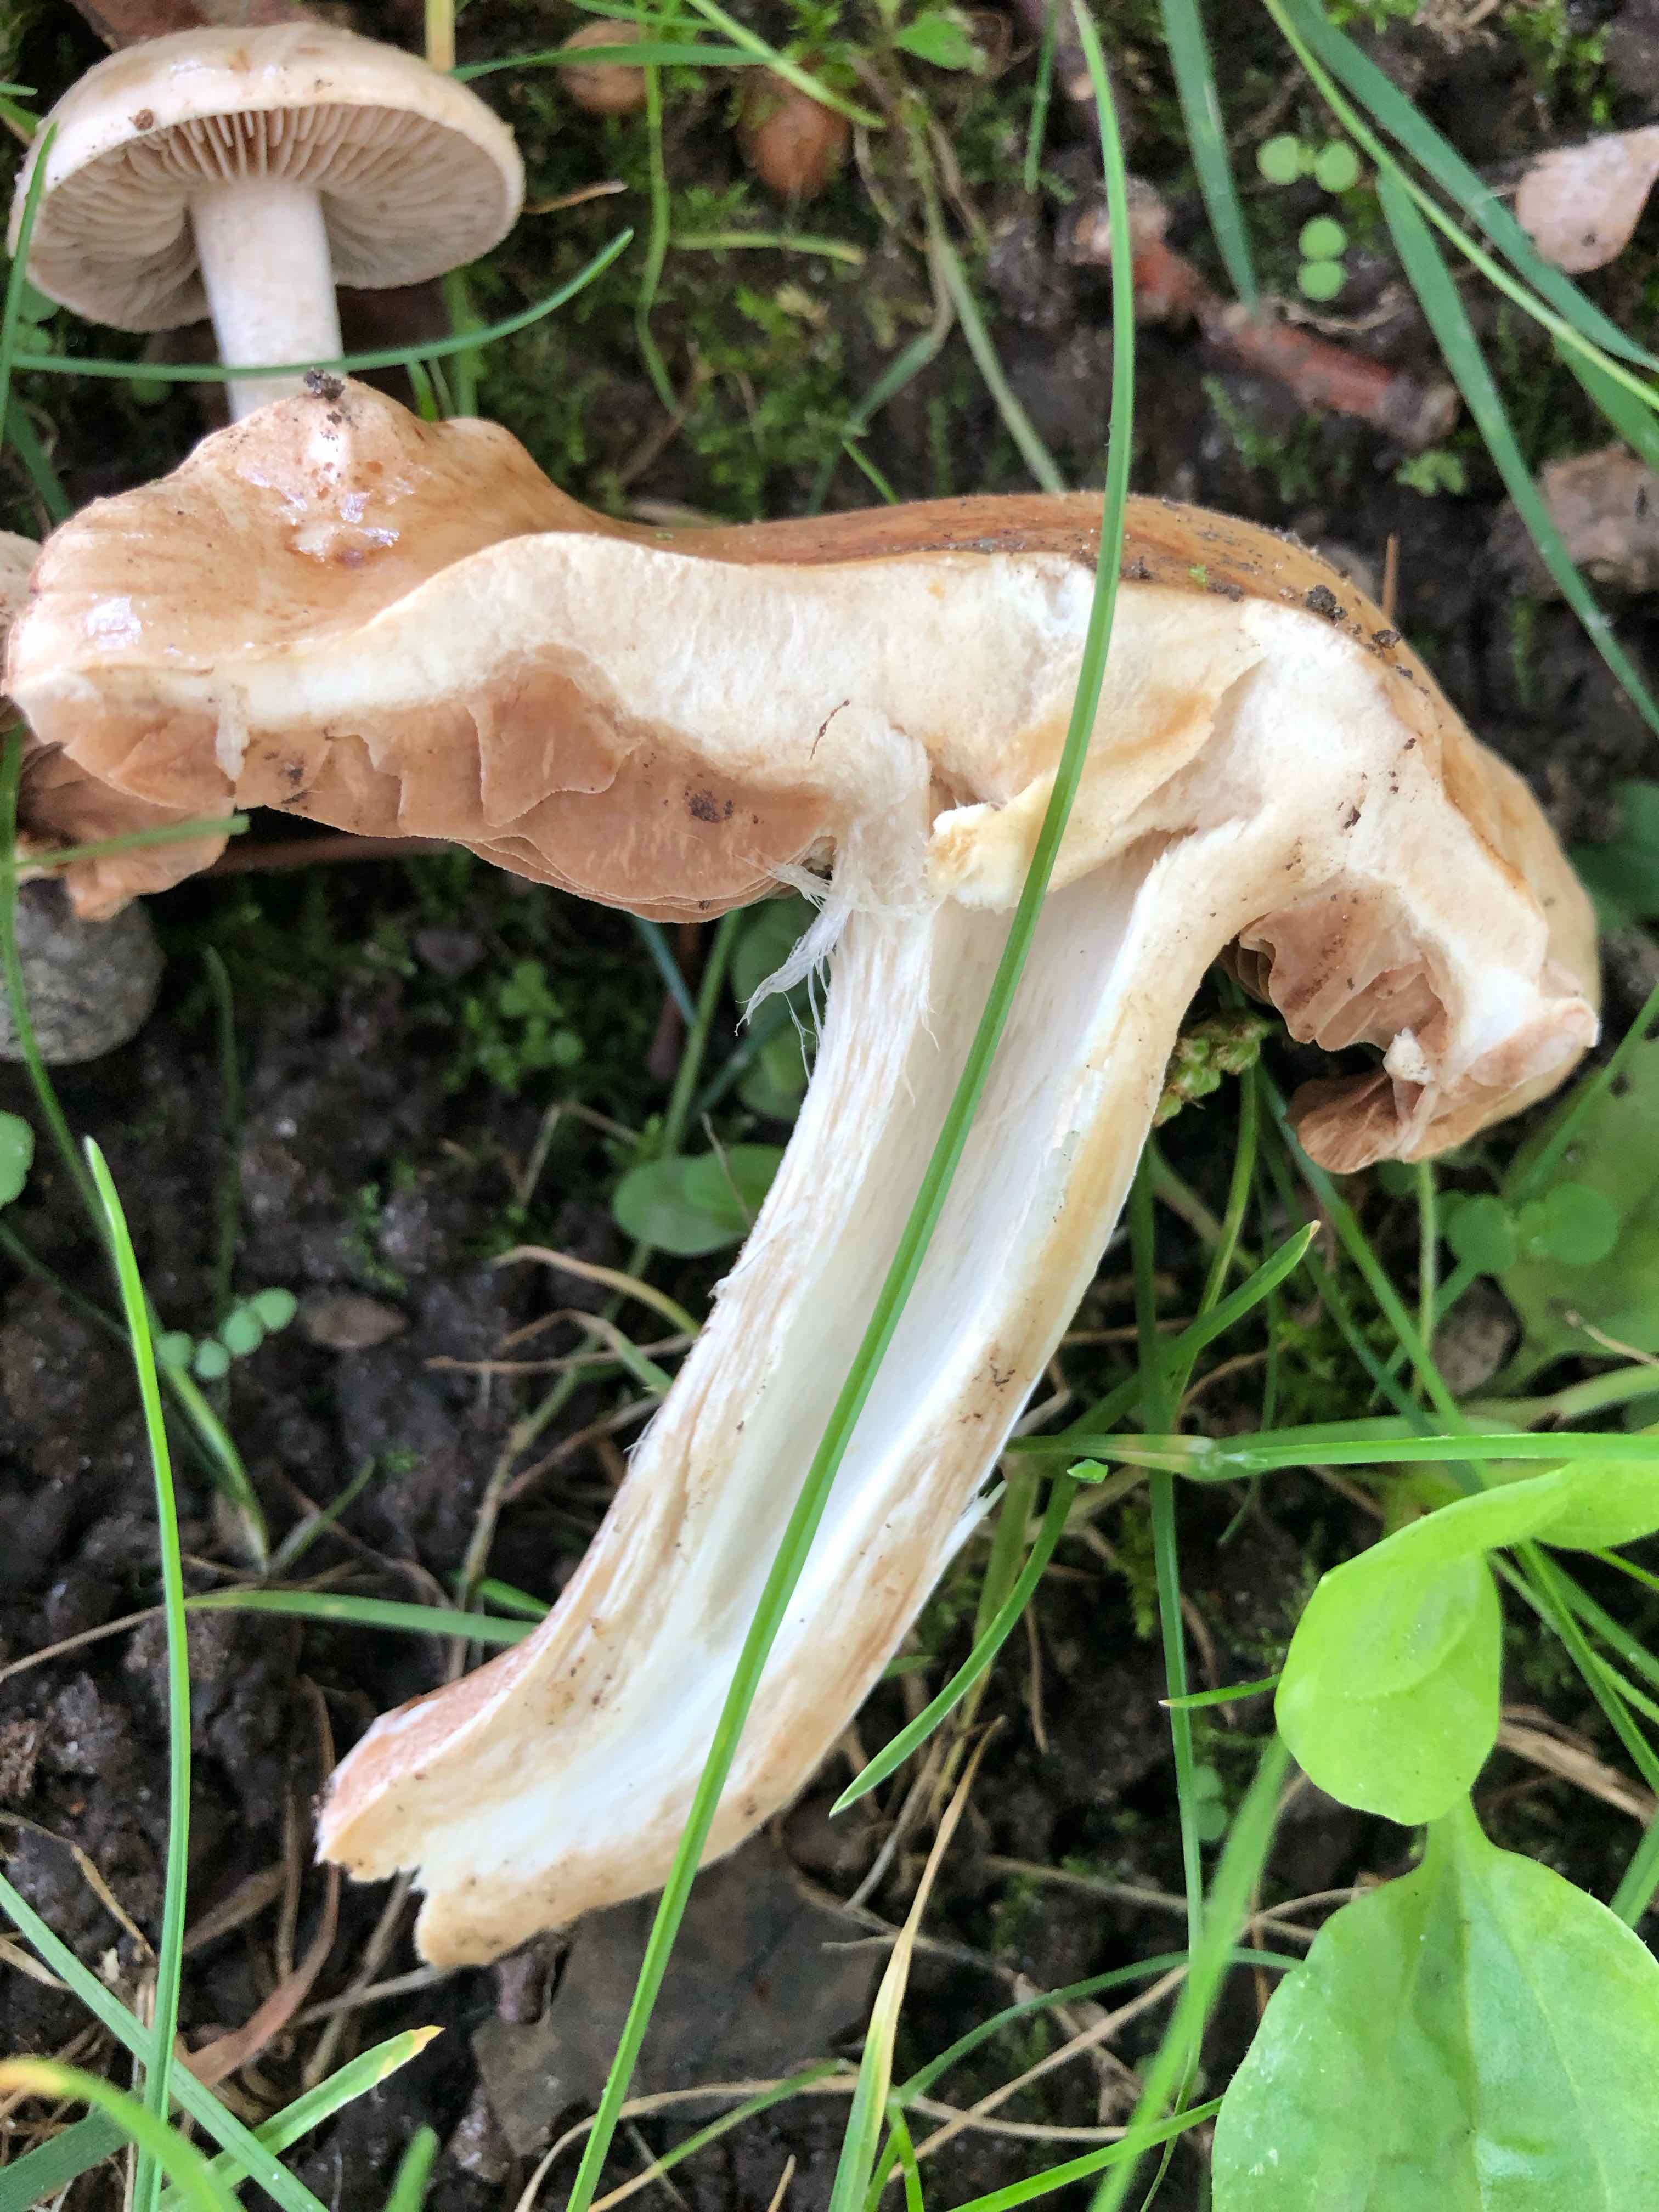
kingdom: Fungi
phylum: Basidiomycota
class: Agaricomycetes
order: Agaricales
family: Hymenogastraceae
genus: Hebeloma
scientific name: Hebeloma sinapizans
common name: ræddike-tåreblad
